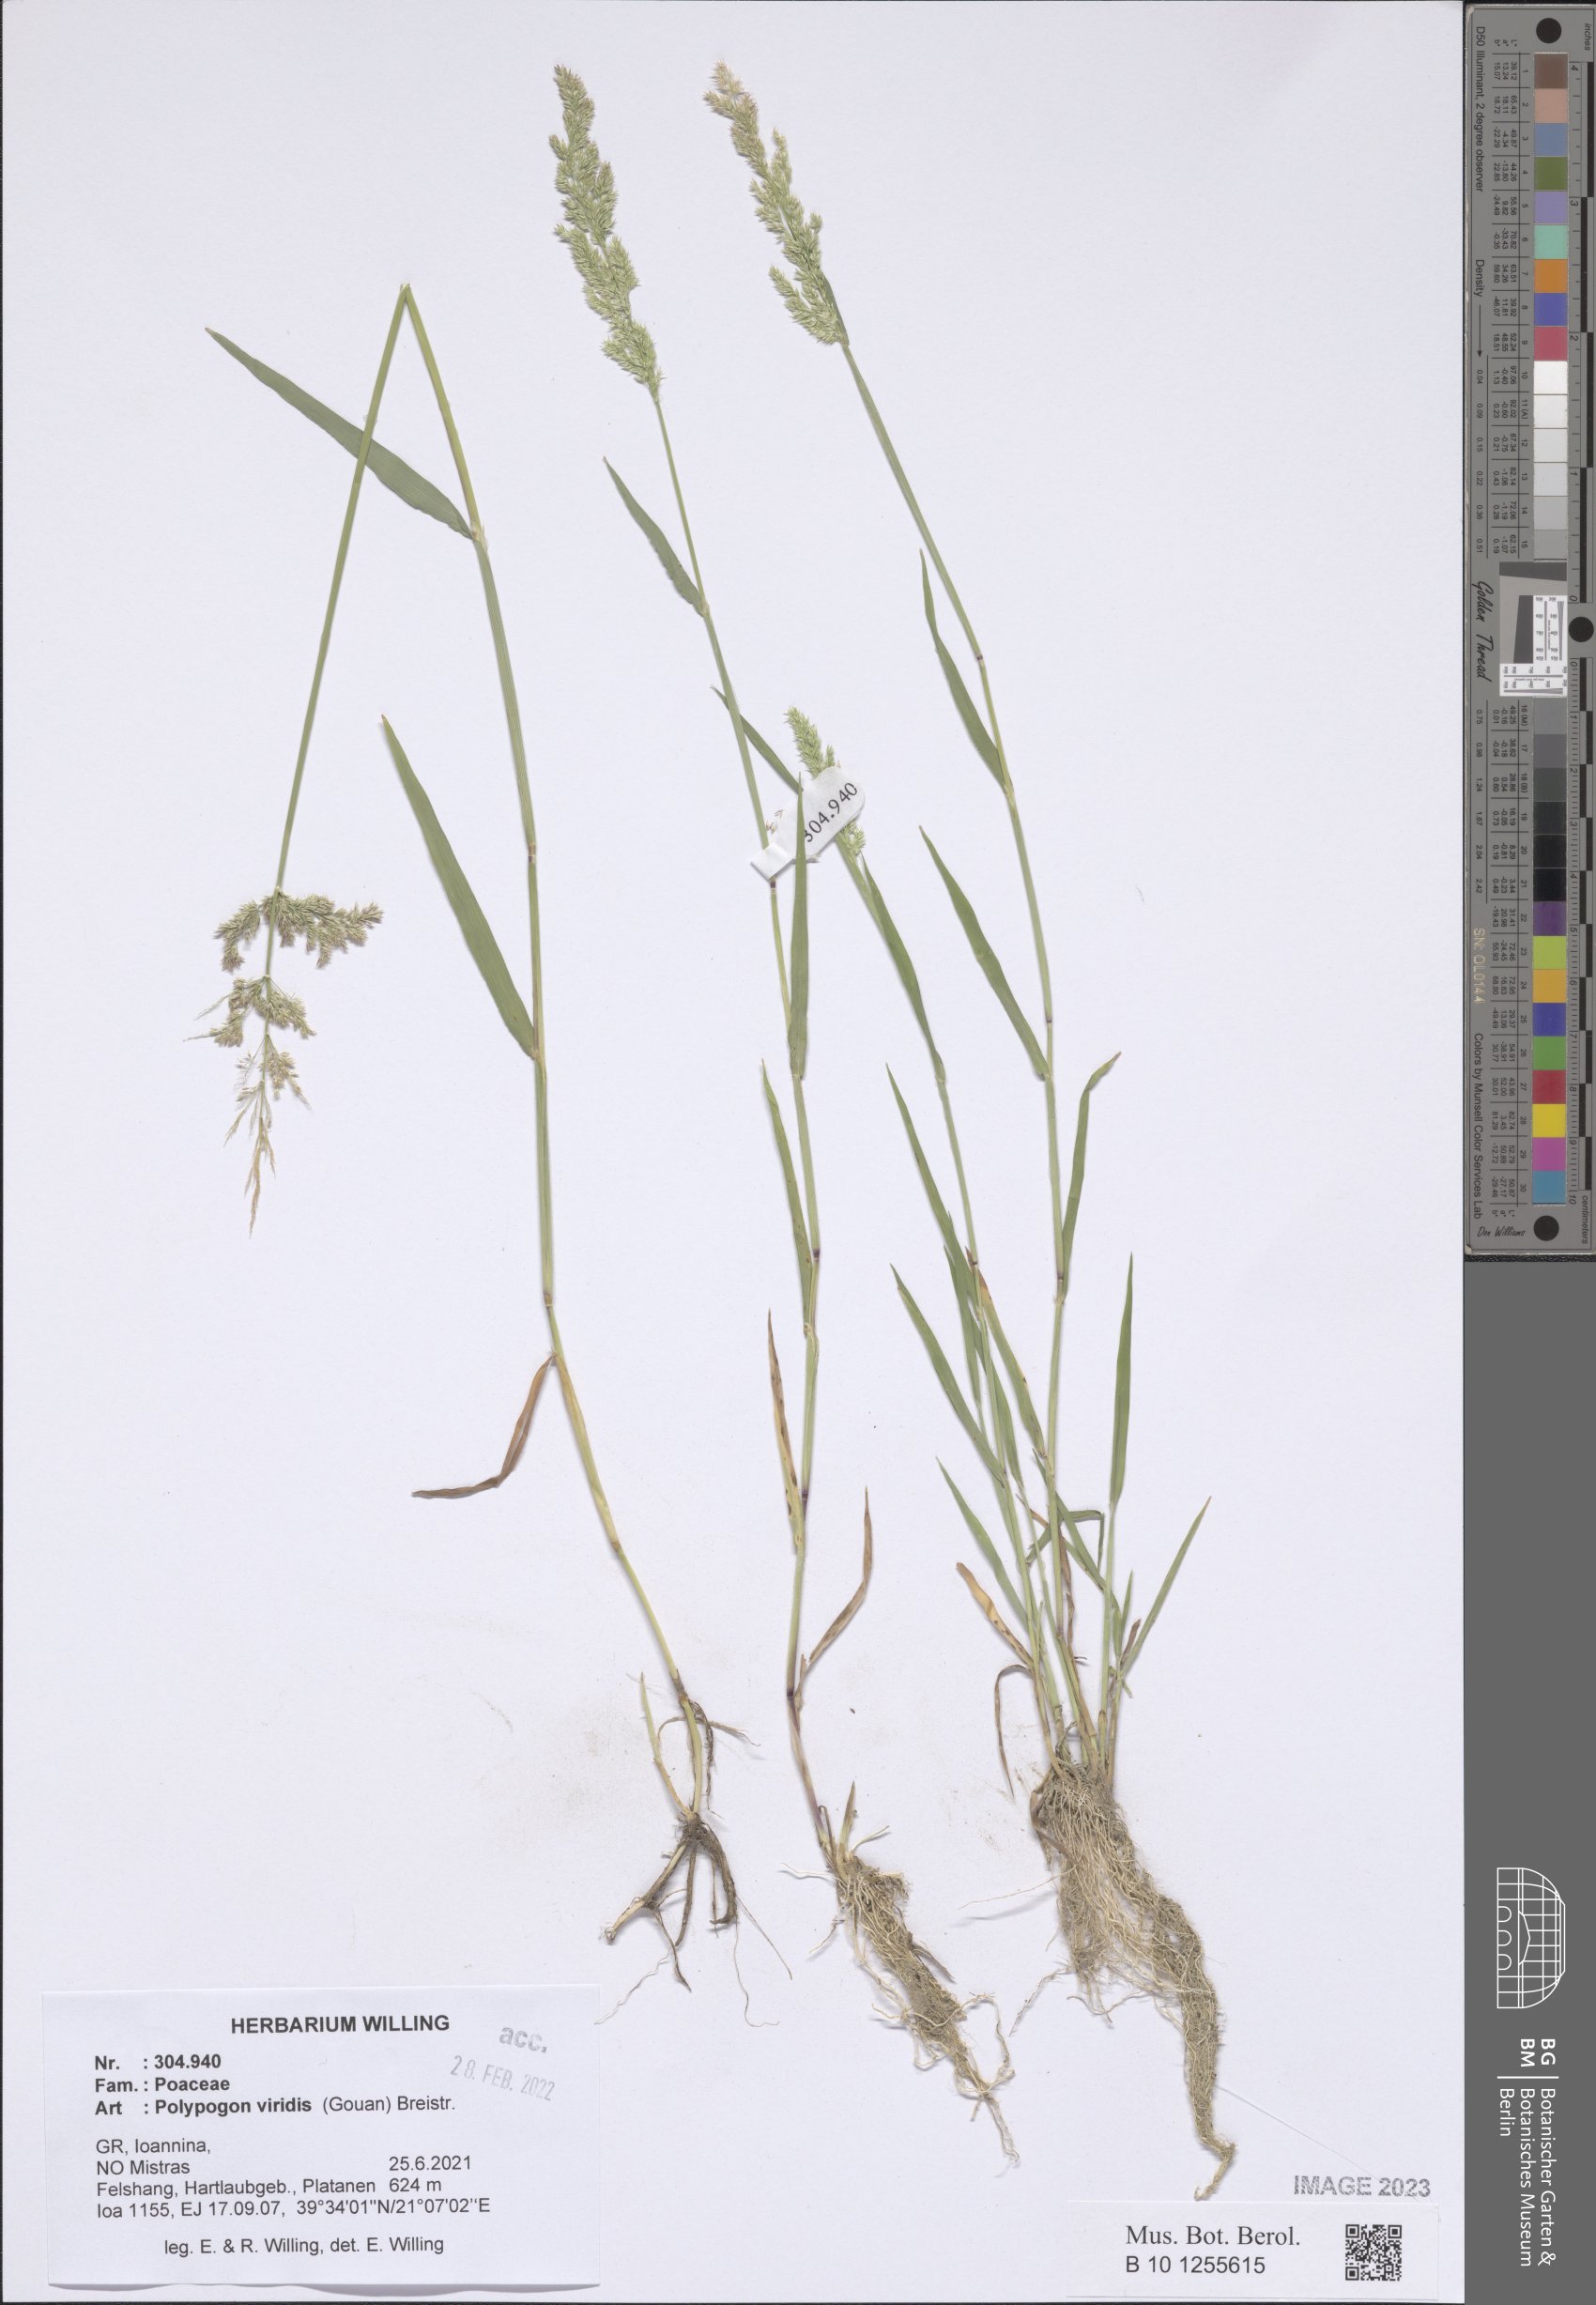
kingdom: Plantae
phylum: Tracheophyta
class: Liliopsida
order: Poales
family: Poaceae
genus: Polypogon
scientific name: Polypogon viridis
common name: Water bent
